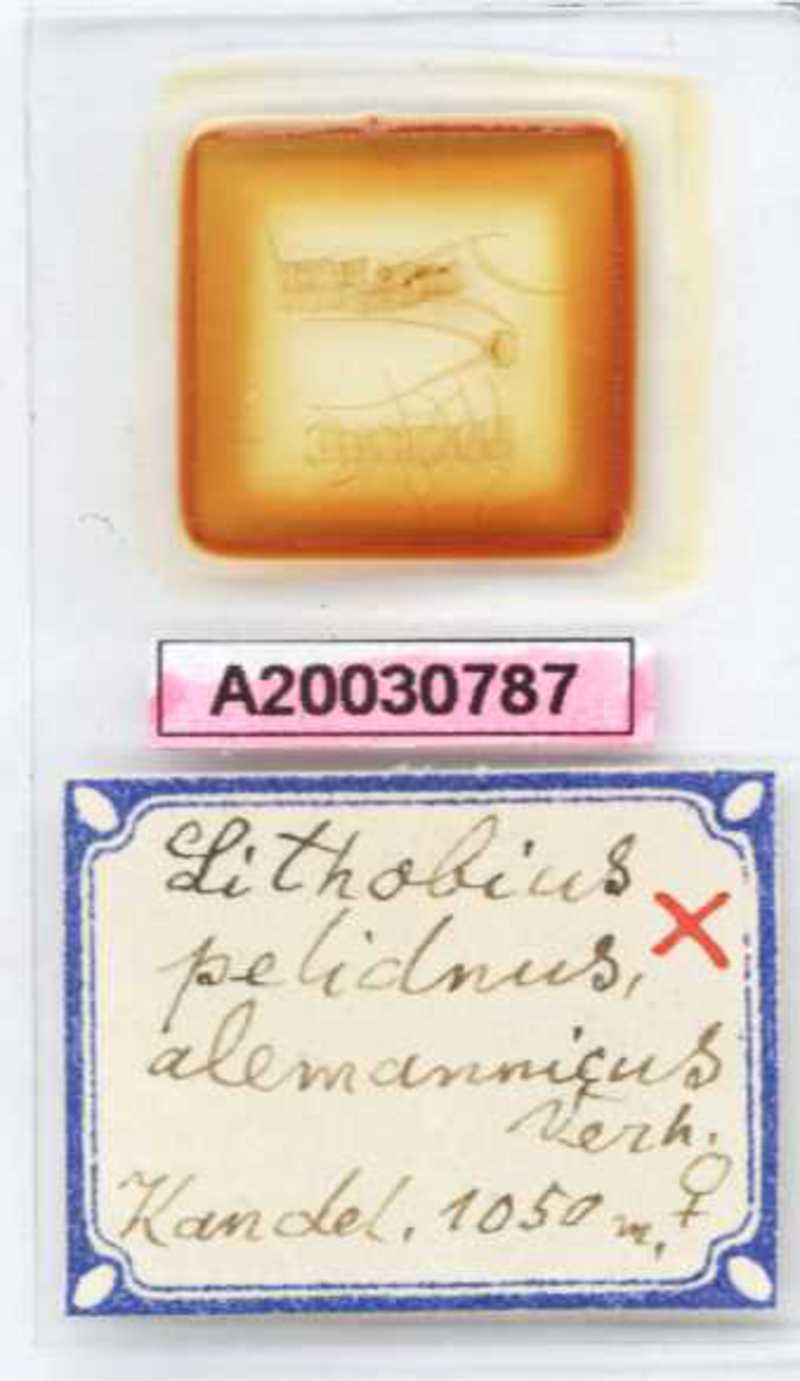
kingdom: Animalia
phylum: Arthropoda
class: Chilopoda
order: Lithobiomorpha
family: Lithobiidae
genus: Lithobius
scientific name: Lithobius pelidnus
